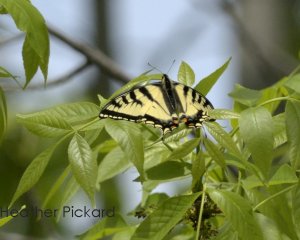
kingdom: Animalia
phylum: Arthropoda
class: Insecta
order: Lepidoptera
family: Papilionidae
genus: Pterourus
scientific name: Pterourus canadensis
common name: Canadian Tiger Swallowtail
